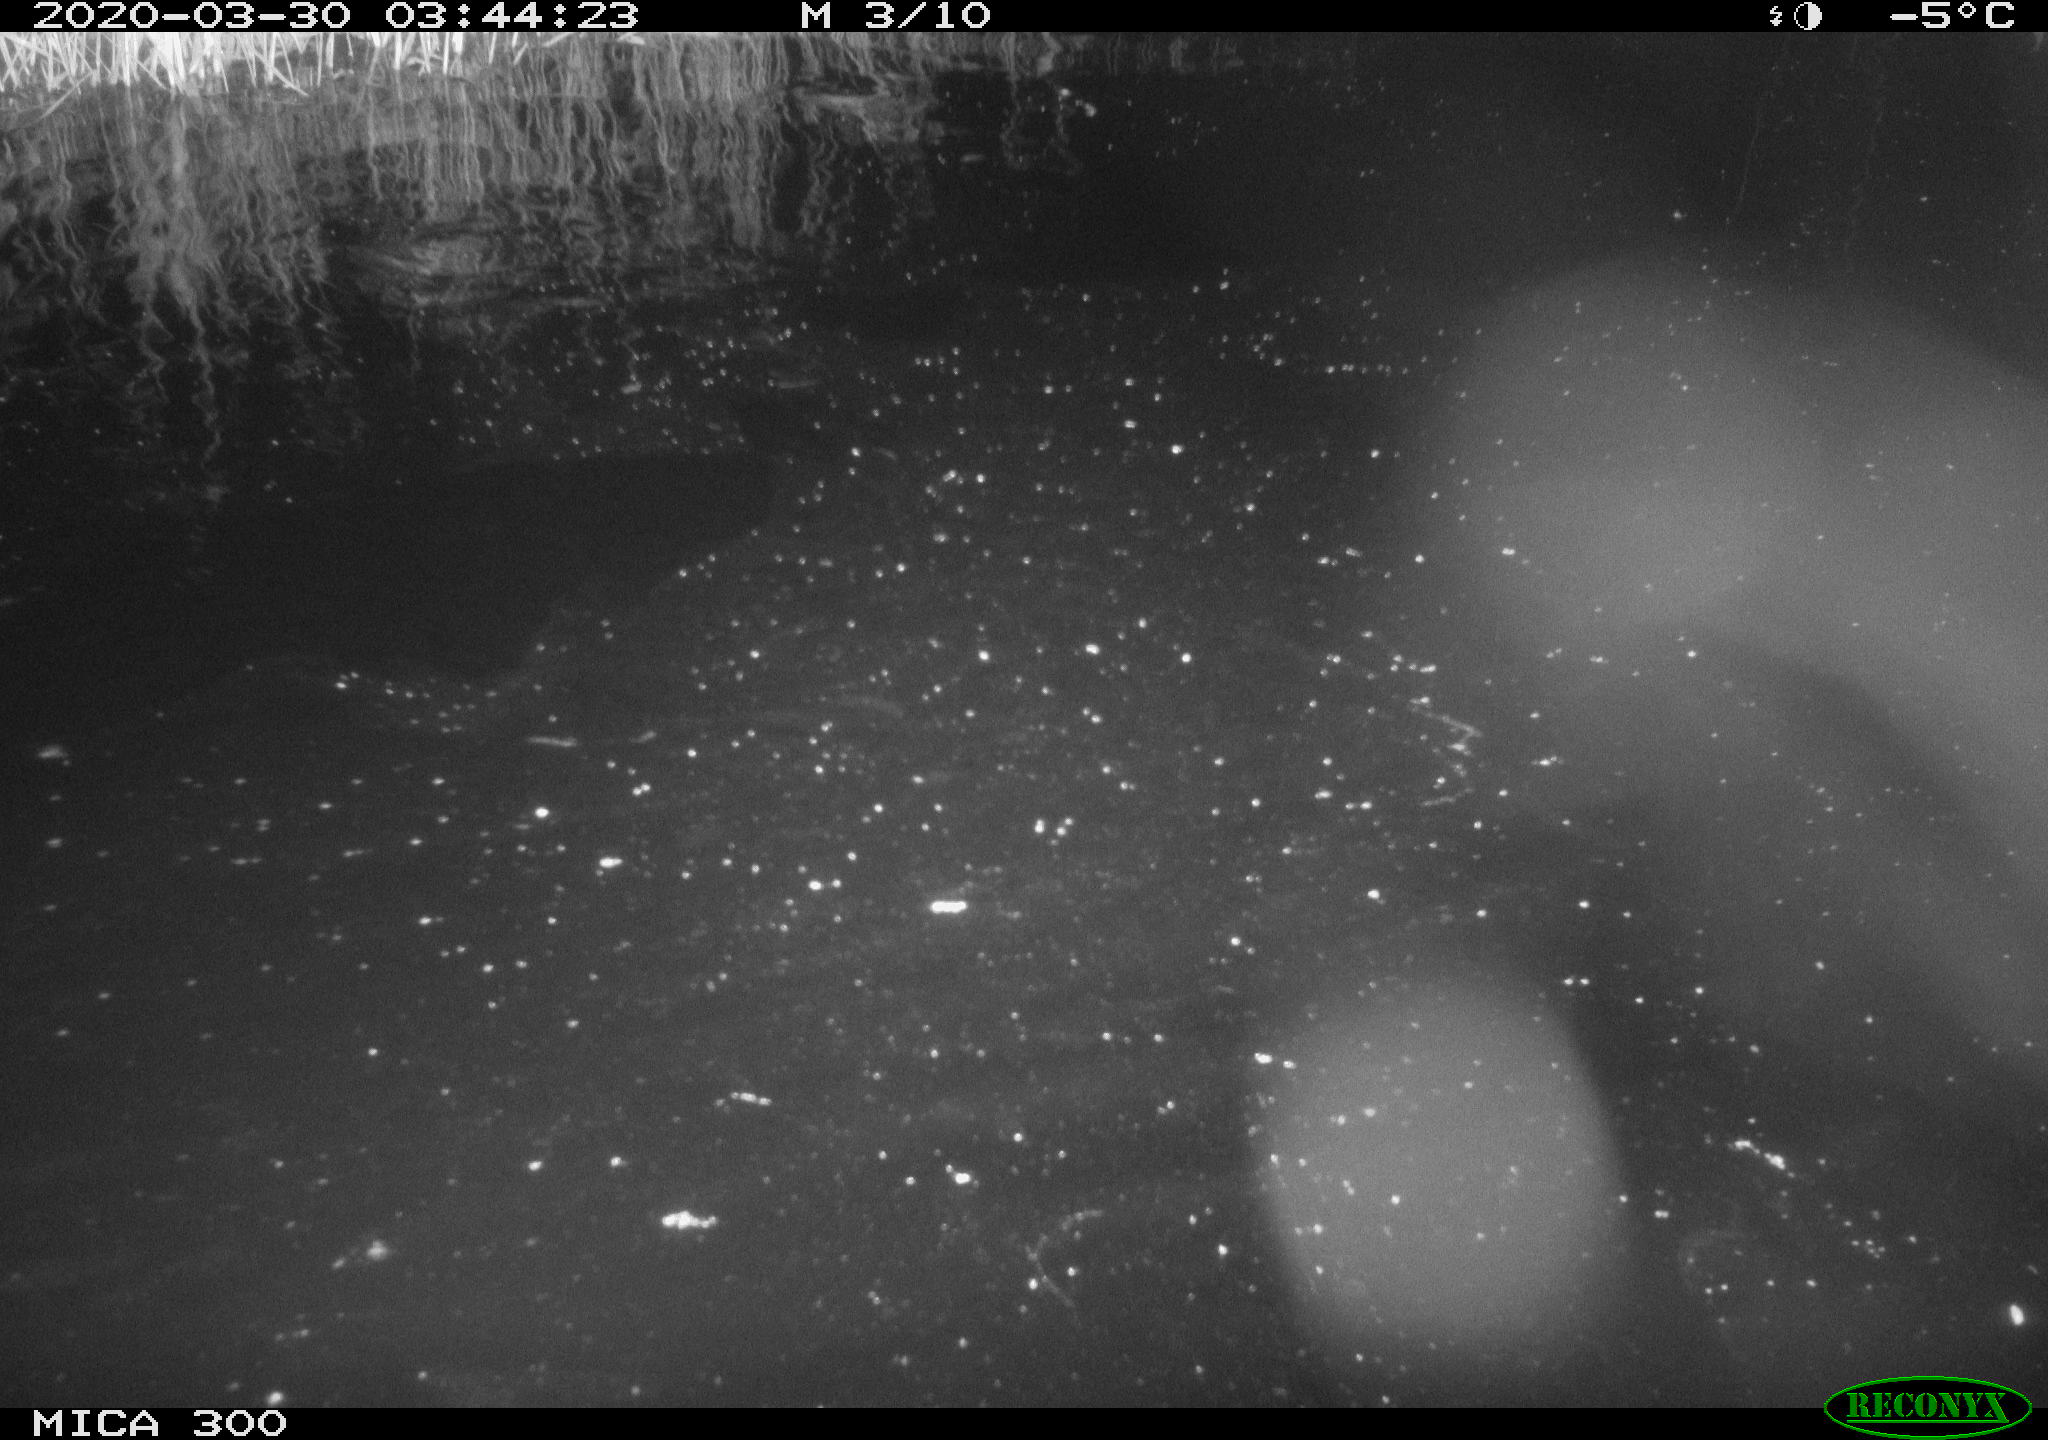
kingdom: Animalia
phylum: Chordata
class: Mammalia
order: Rodentia
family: Castoridae
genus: Castor
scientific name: Castor fiber
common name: Eurasian beaver
